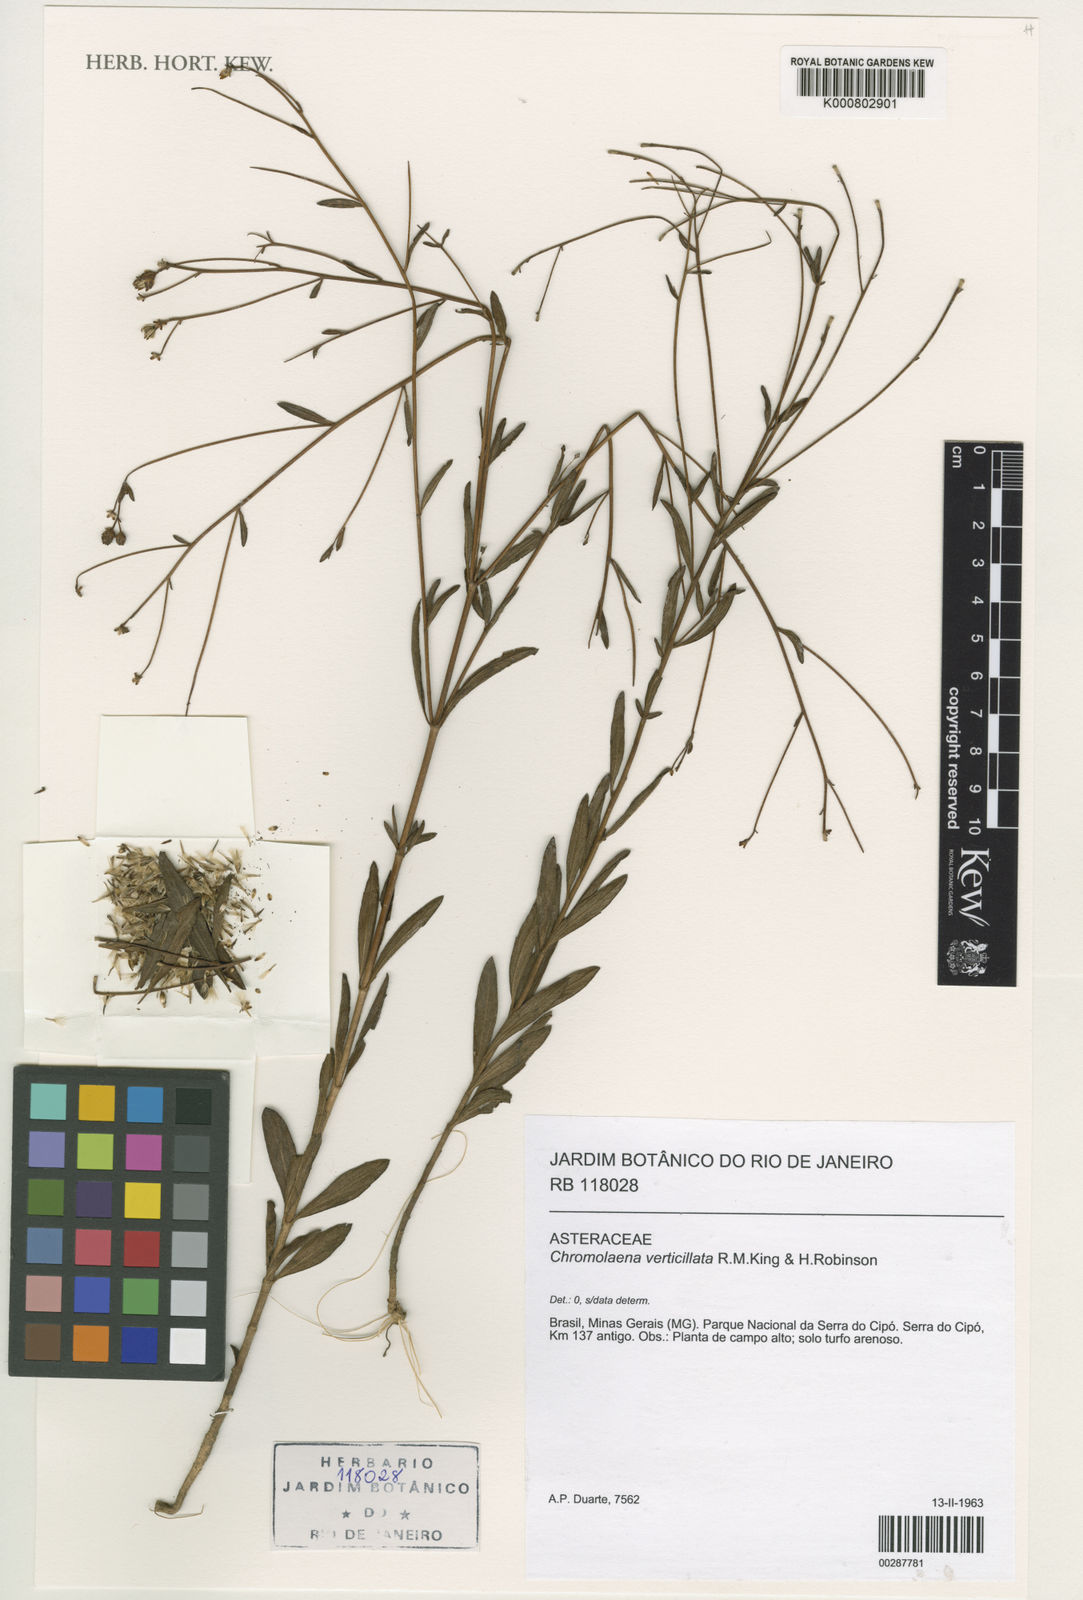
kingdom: Plantae
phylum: Tracheophyta
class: Magnoliopsida
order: Asterales
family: Asteraceae
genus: Chromolaena
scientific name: Chromolaena verticillata
